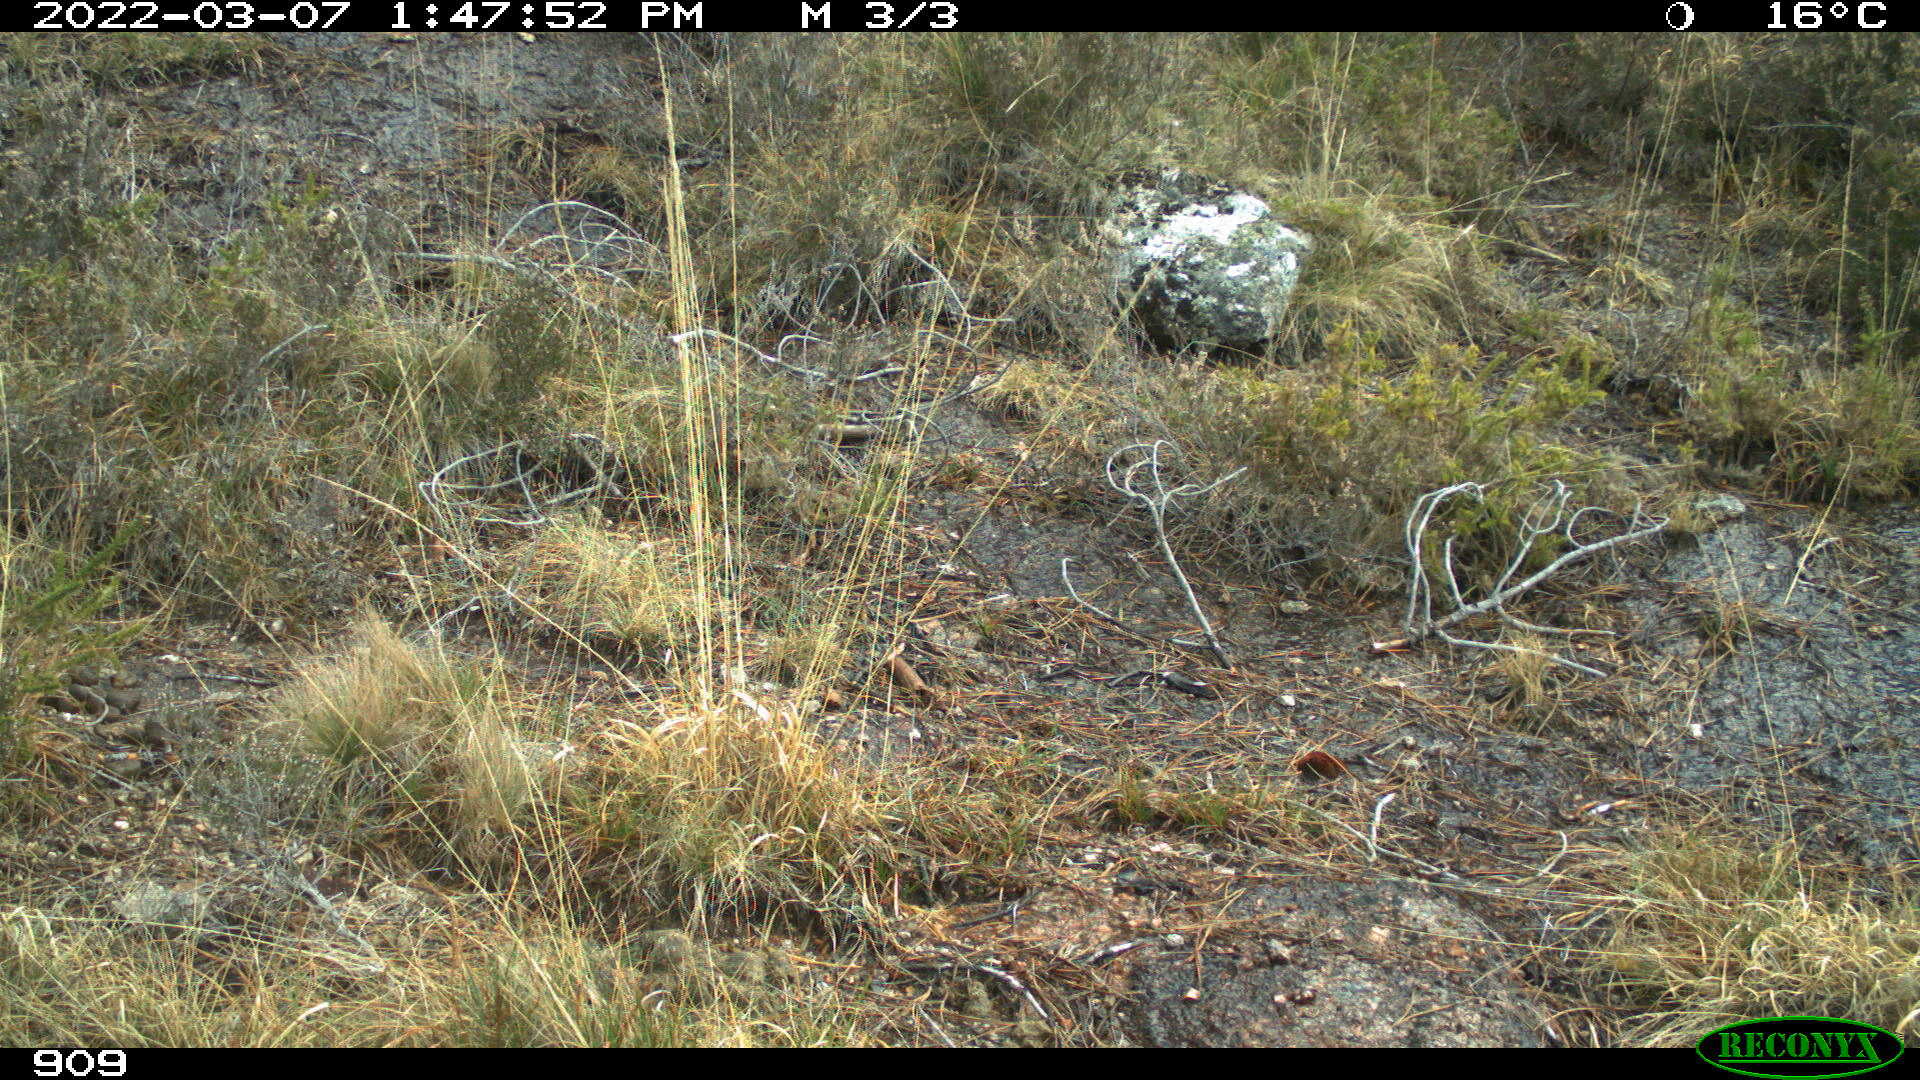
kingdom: Animalia
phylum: Chordata
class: Mammalia
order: Perissodactyla
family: Equidae
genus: Equus
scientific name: Equus caballus
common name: Horse
